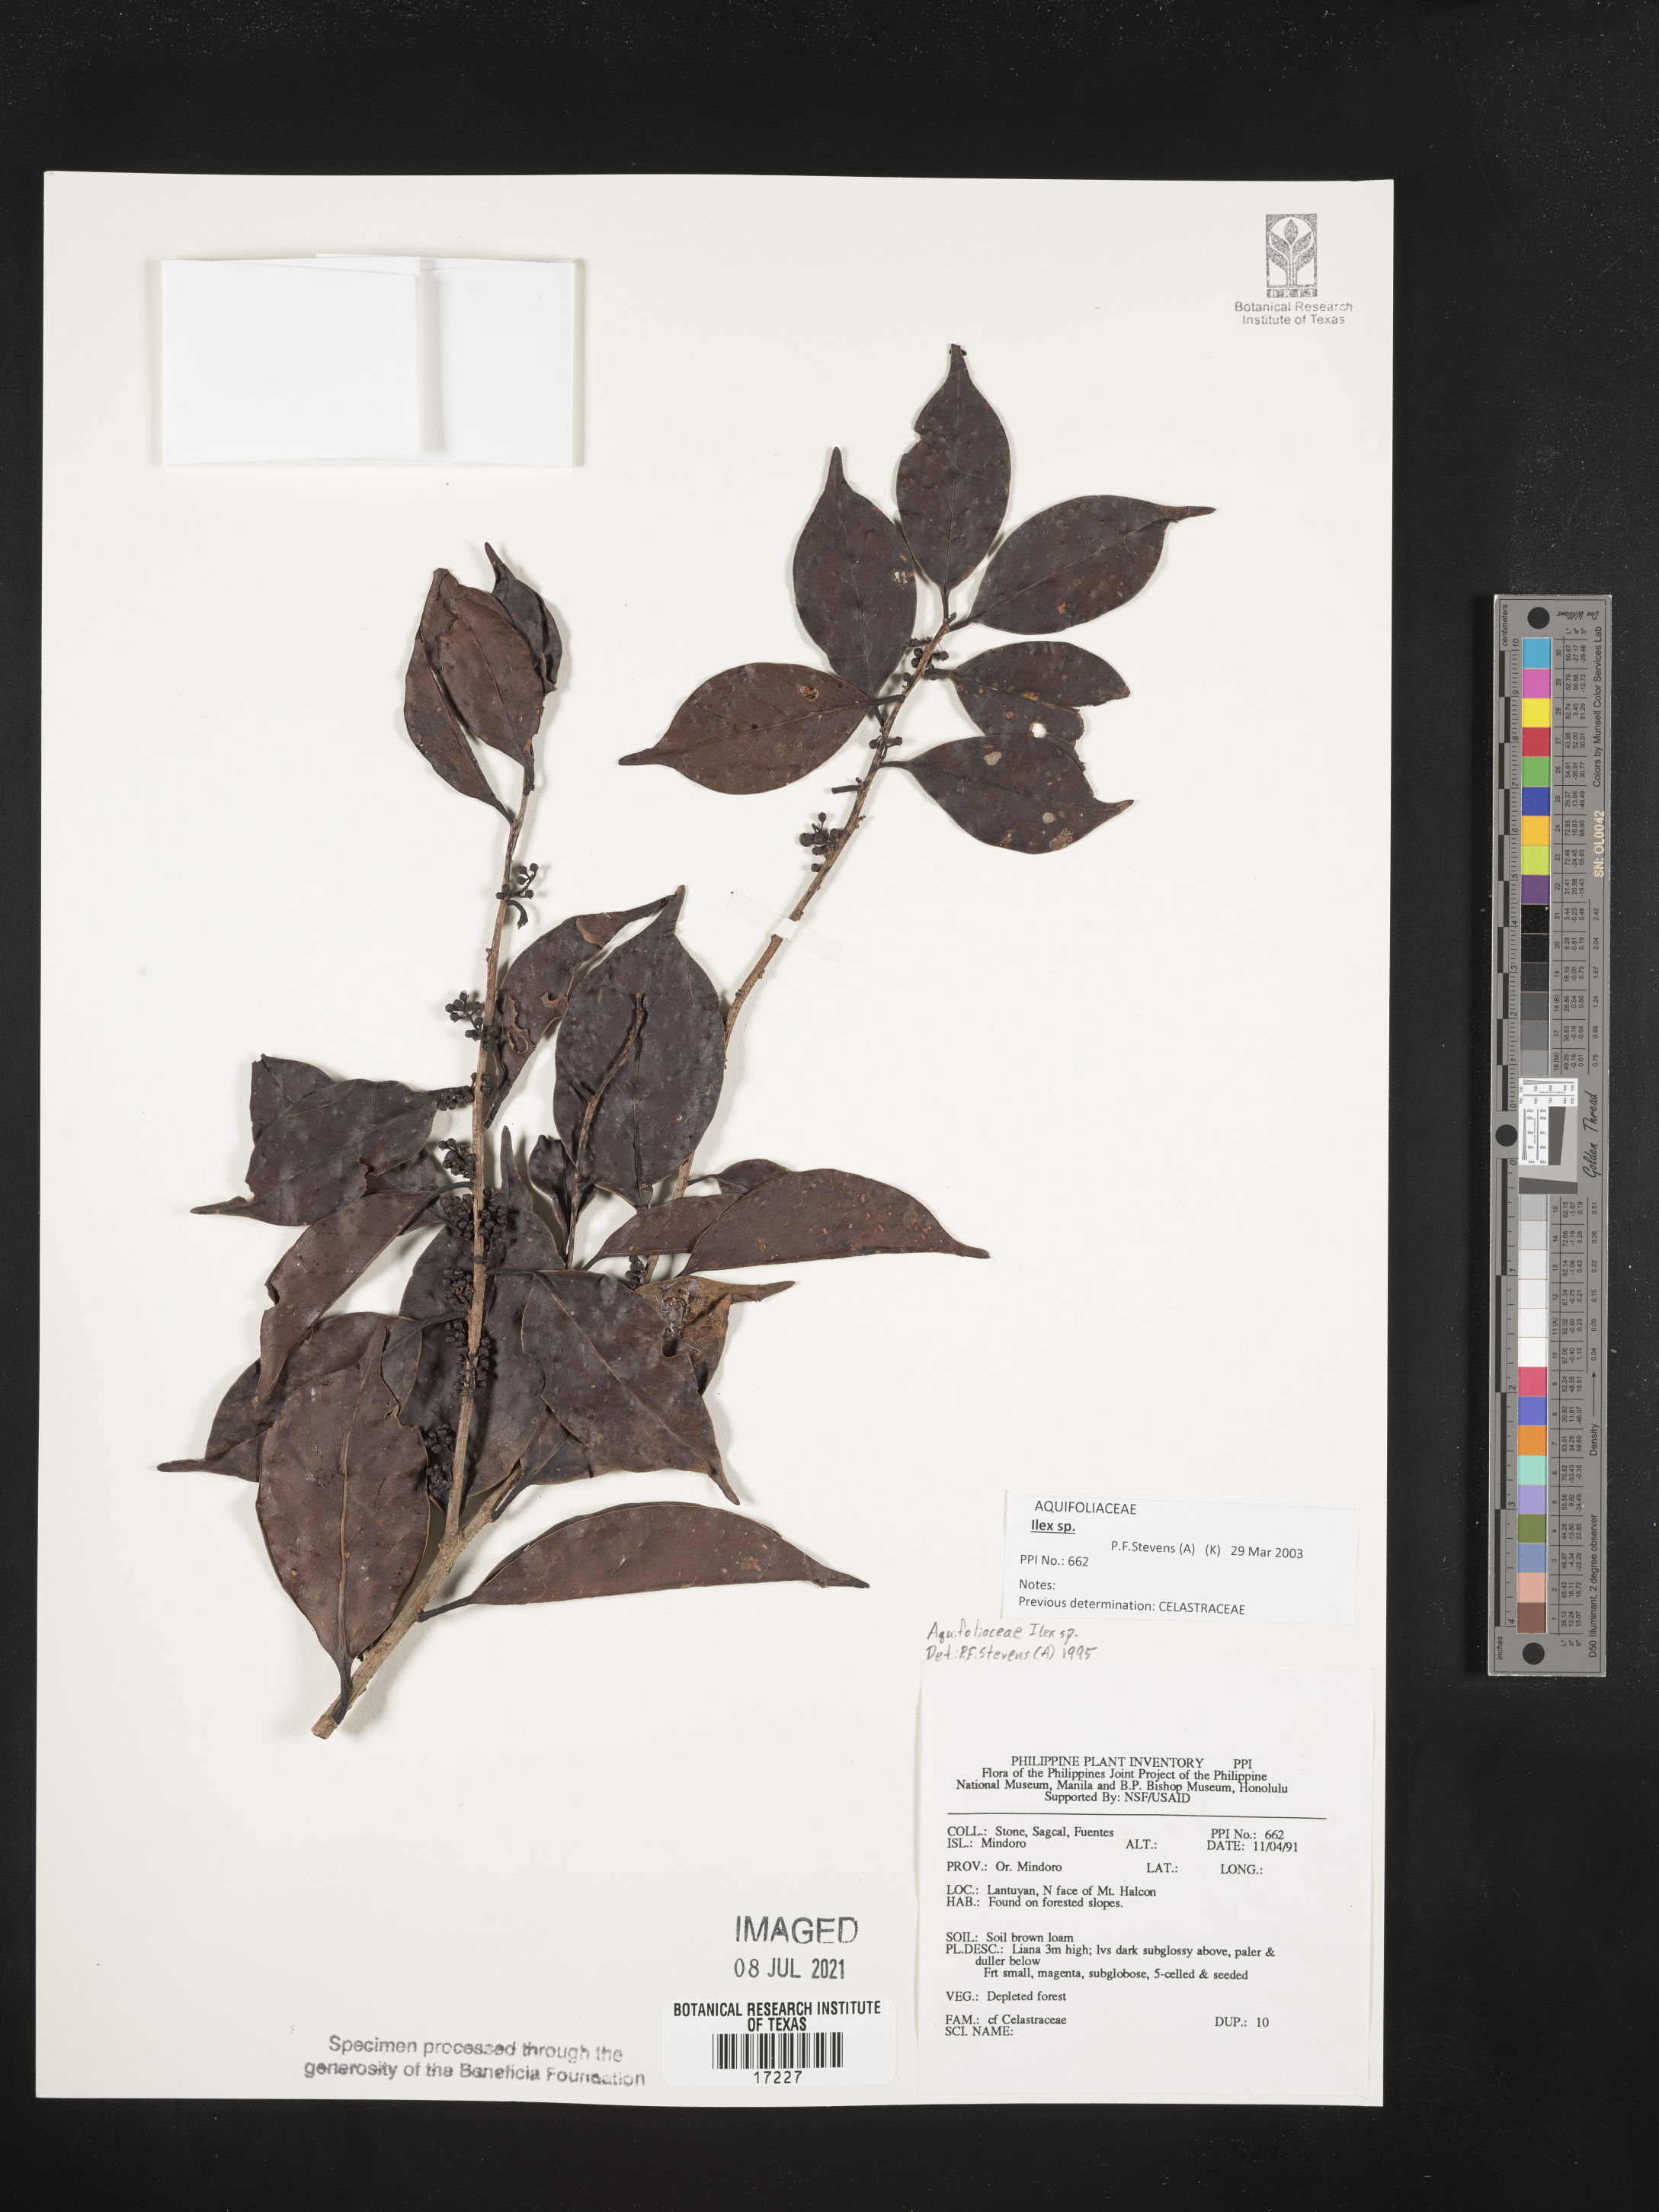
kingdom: Plantae
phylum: Tracheophyta
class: Magnoliopsida
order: Aquifoliales
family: Aquifoliaceae
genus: Ilex
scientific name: Ilex
